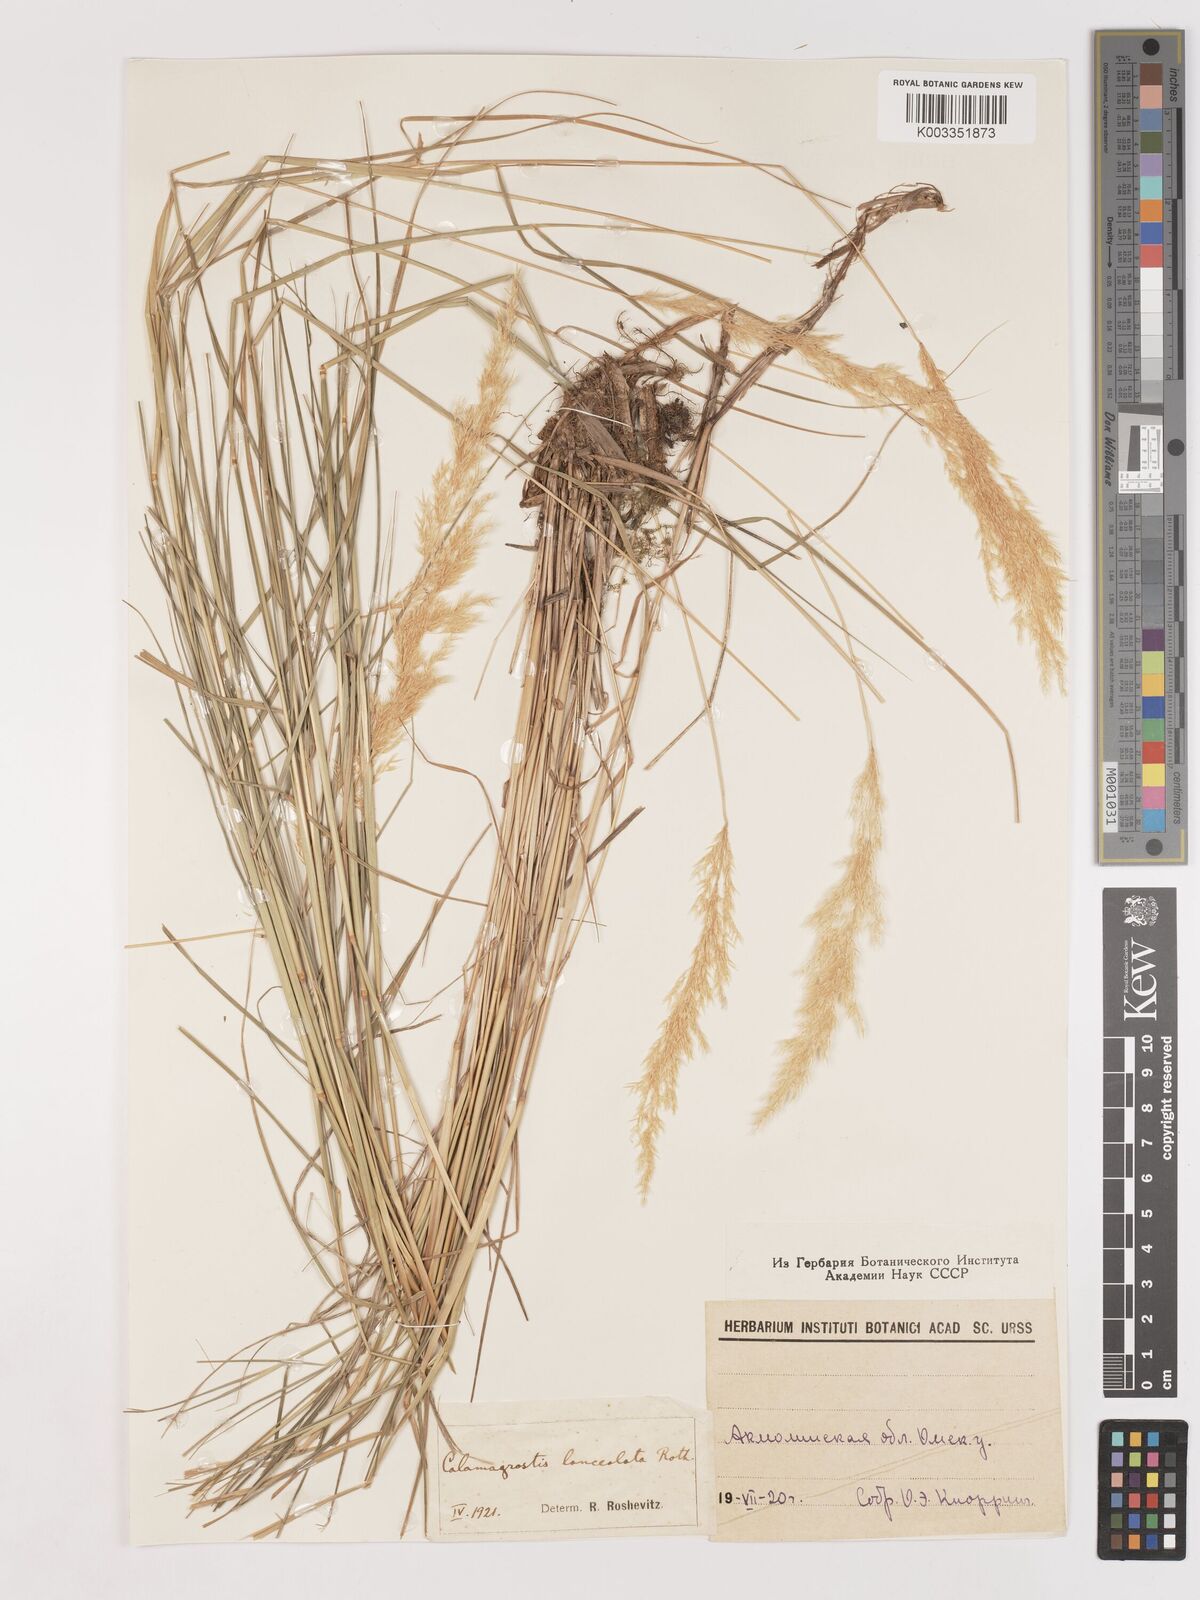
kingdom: Plantae
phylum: Tracheophyta
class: Liliopsida
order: Poales
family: Poaceae
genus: Calamagrostis
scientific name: Calamagrostis canescens
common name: Purple small-reed
